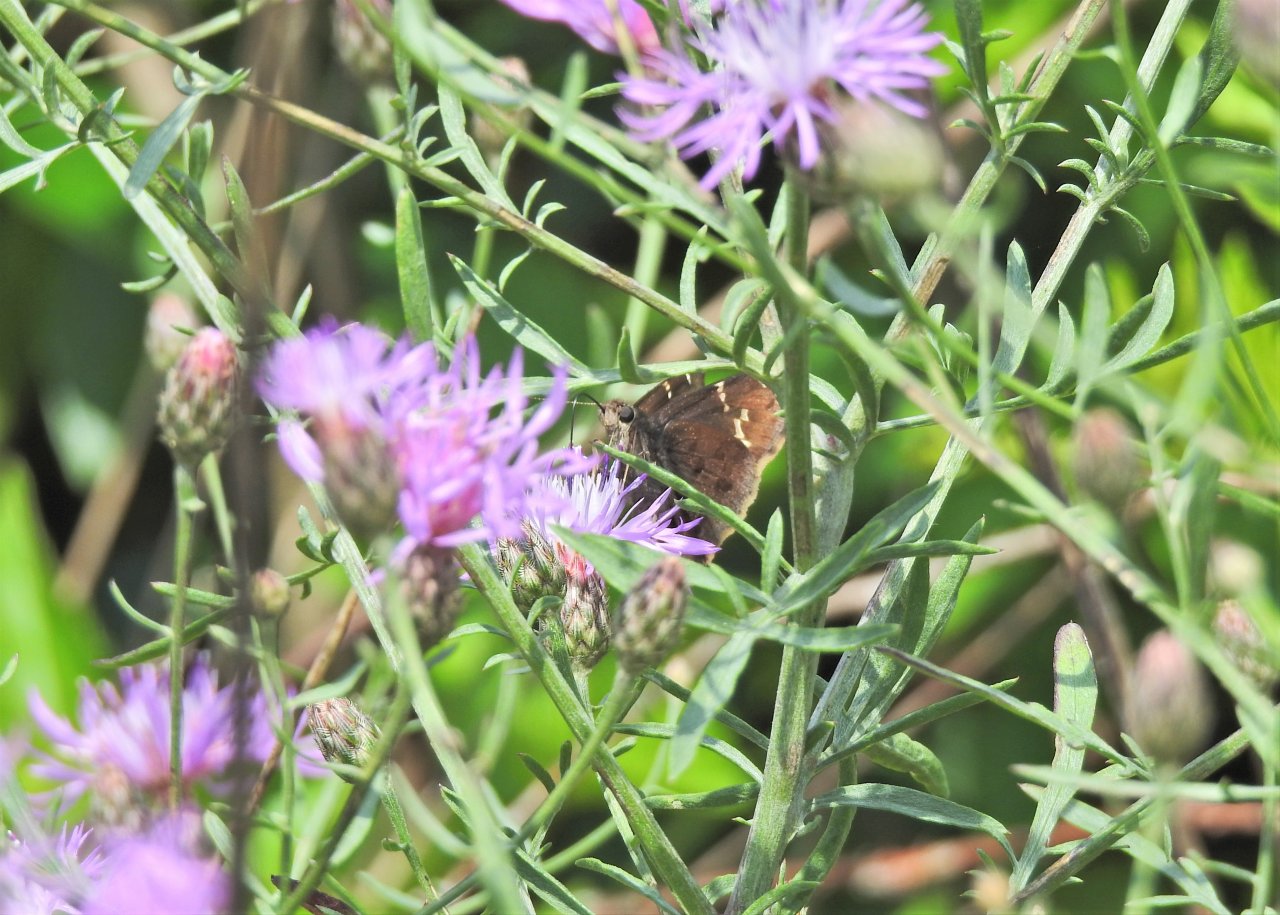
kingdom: Animalia
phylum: Arthropoda
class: Insecta
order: Lepidoptera
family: Hesperiidae
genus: Autochton
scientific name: Autochton
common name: Southern Cloudywing
